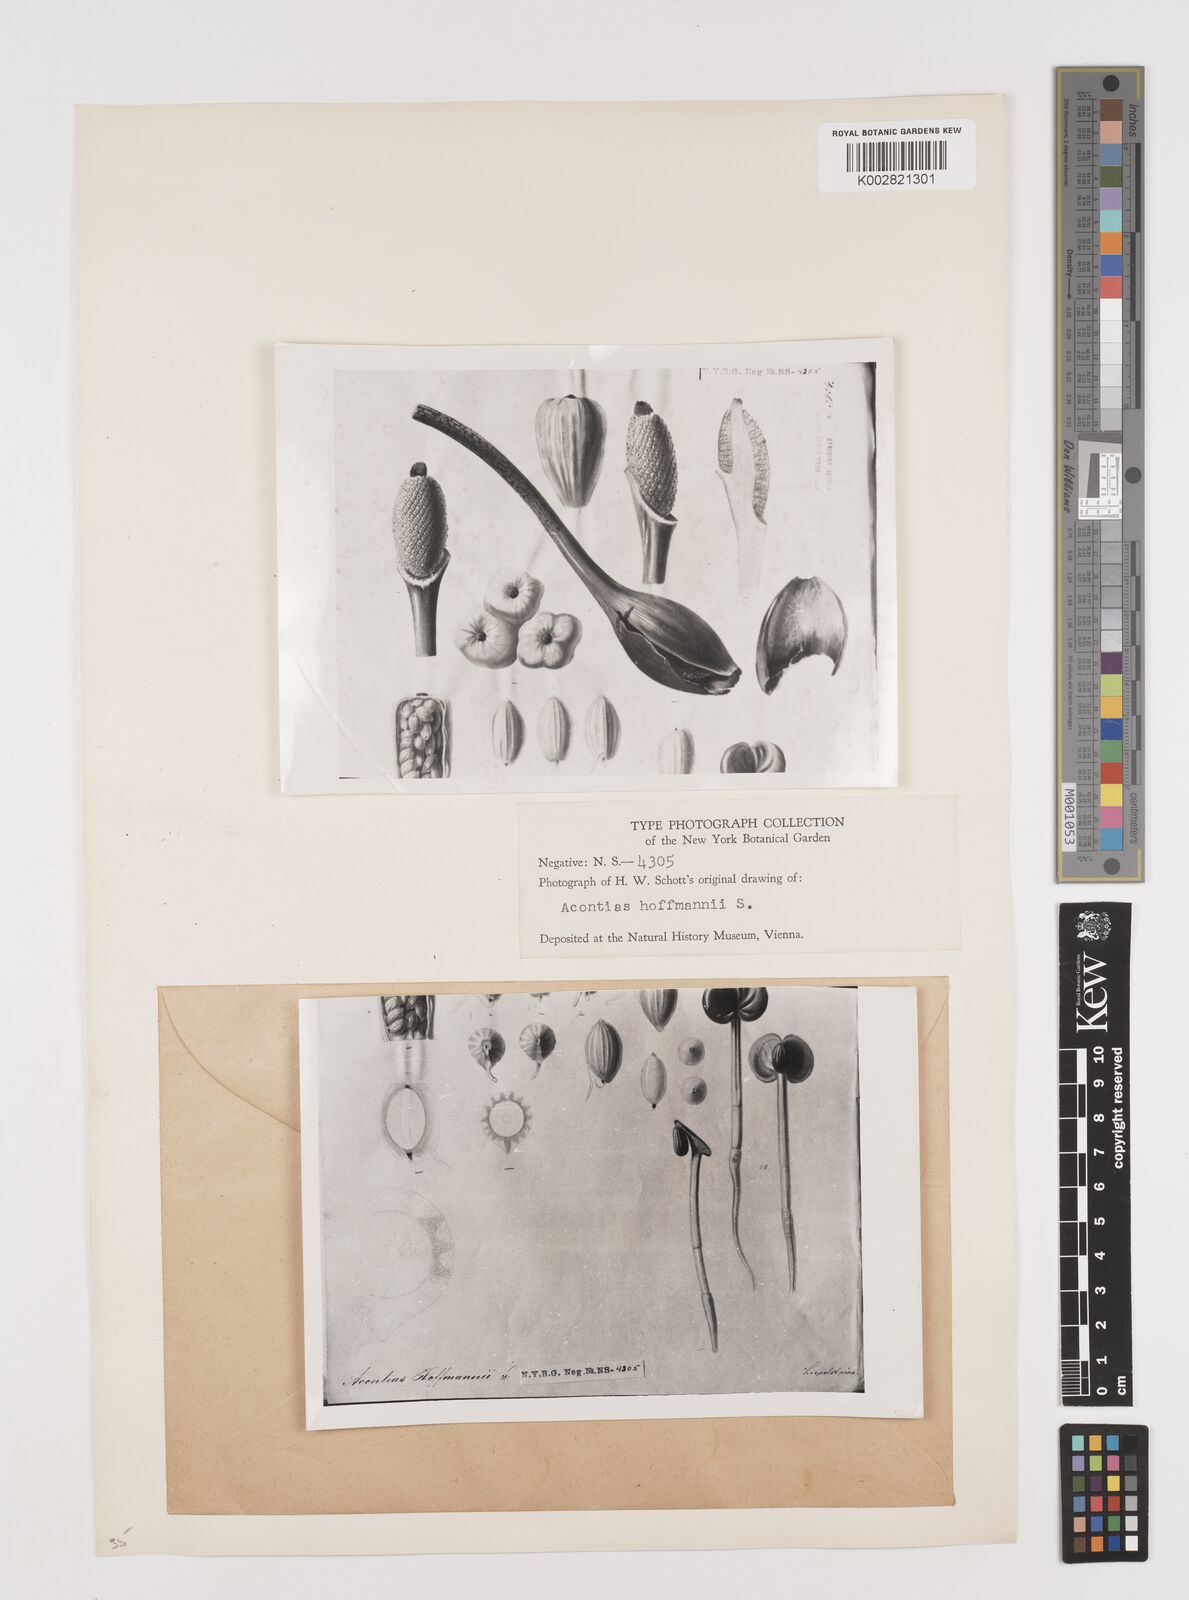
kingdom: Plantae
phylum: Tracheophyta
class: Liliopsida
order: Alismatales
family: Araceae
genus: Xanthosoma
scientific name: Xanthosoma wendlandii
